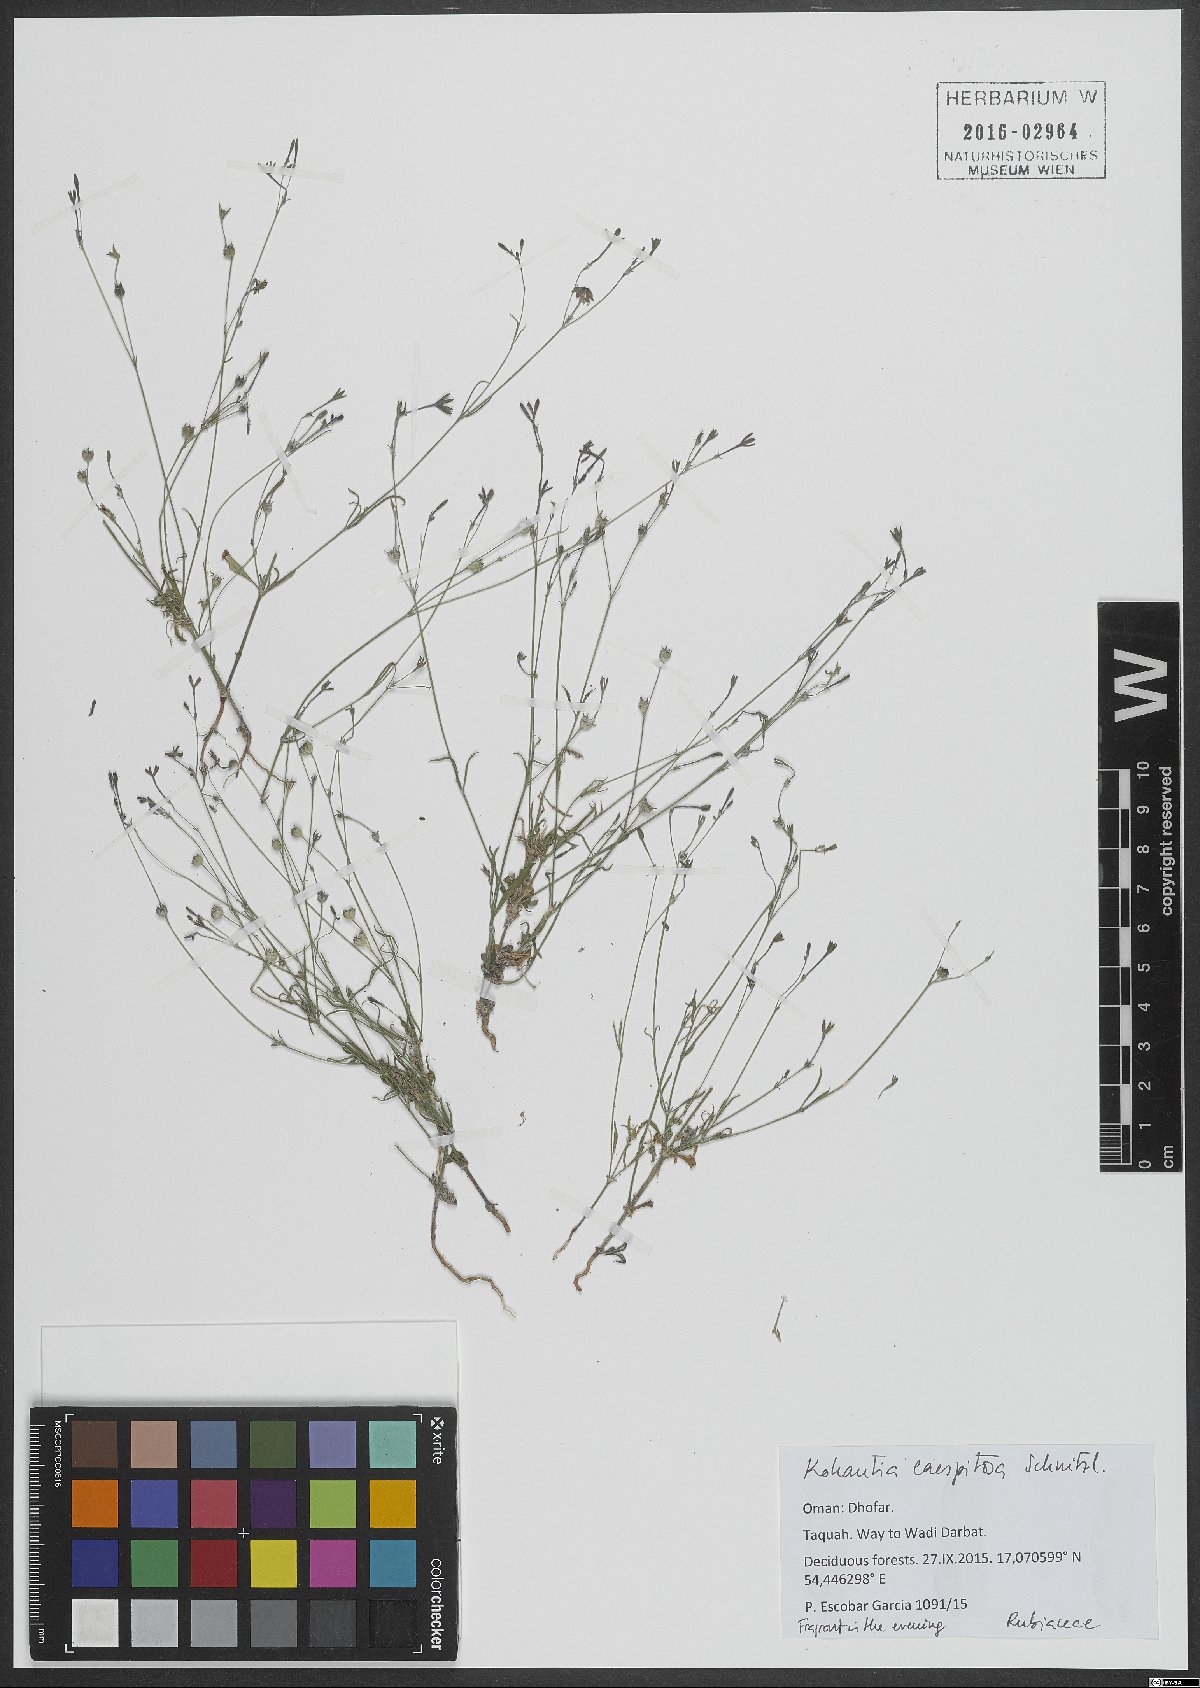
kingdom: Plantae
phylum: Tracheophyta
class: Magnoliopsida
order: Gentianales
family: Rubiaceae
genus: Kohautia
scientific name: Kohautia caespitosa
